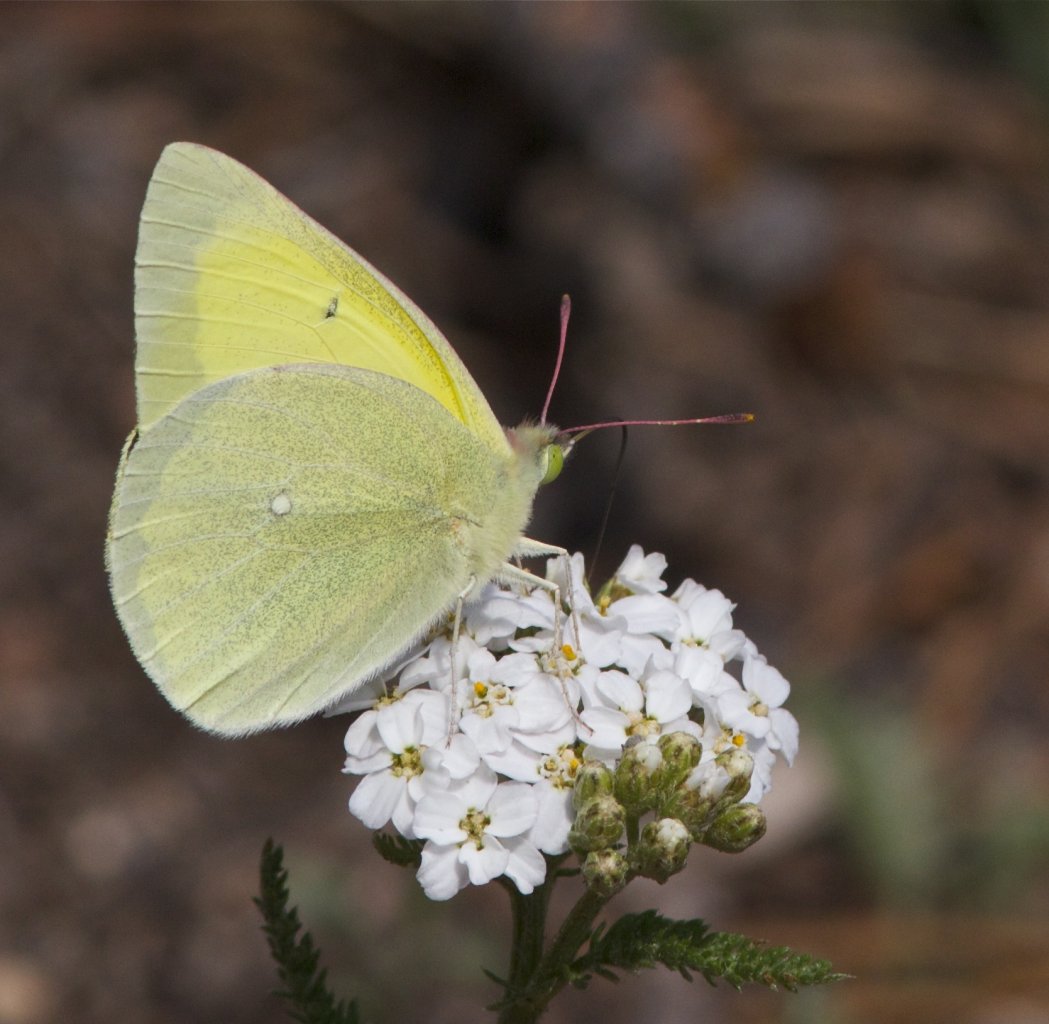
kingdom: Animalia
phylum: Arthropoda
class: Insecta
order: Lepidoptera
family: Pieridae
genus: Colias
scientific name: Colias alexandra
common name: Queen Alexandra's Sulphur
